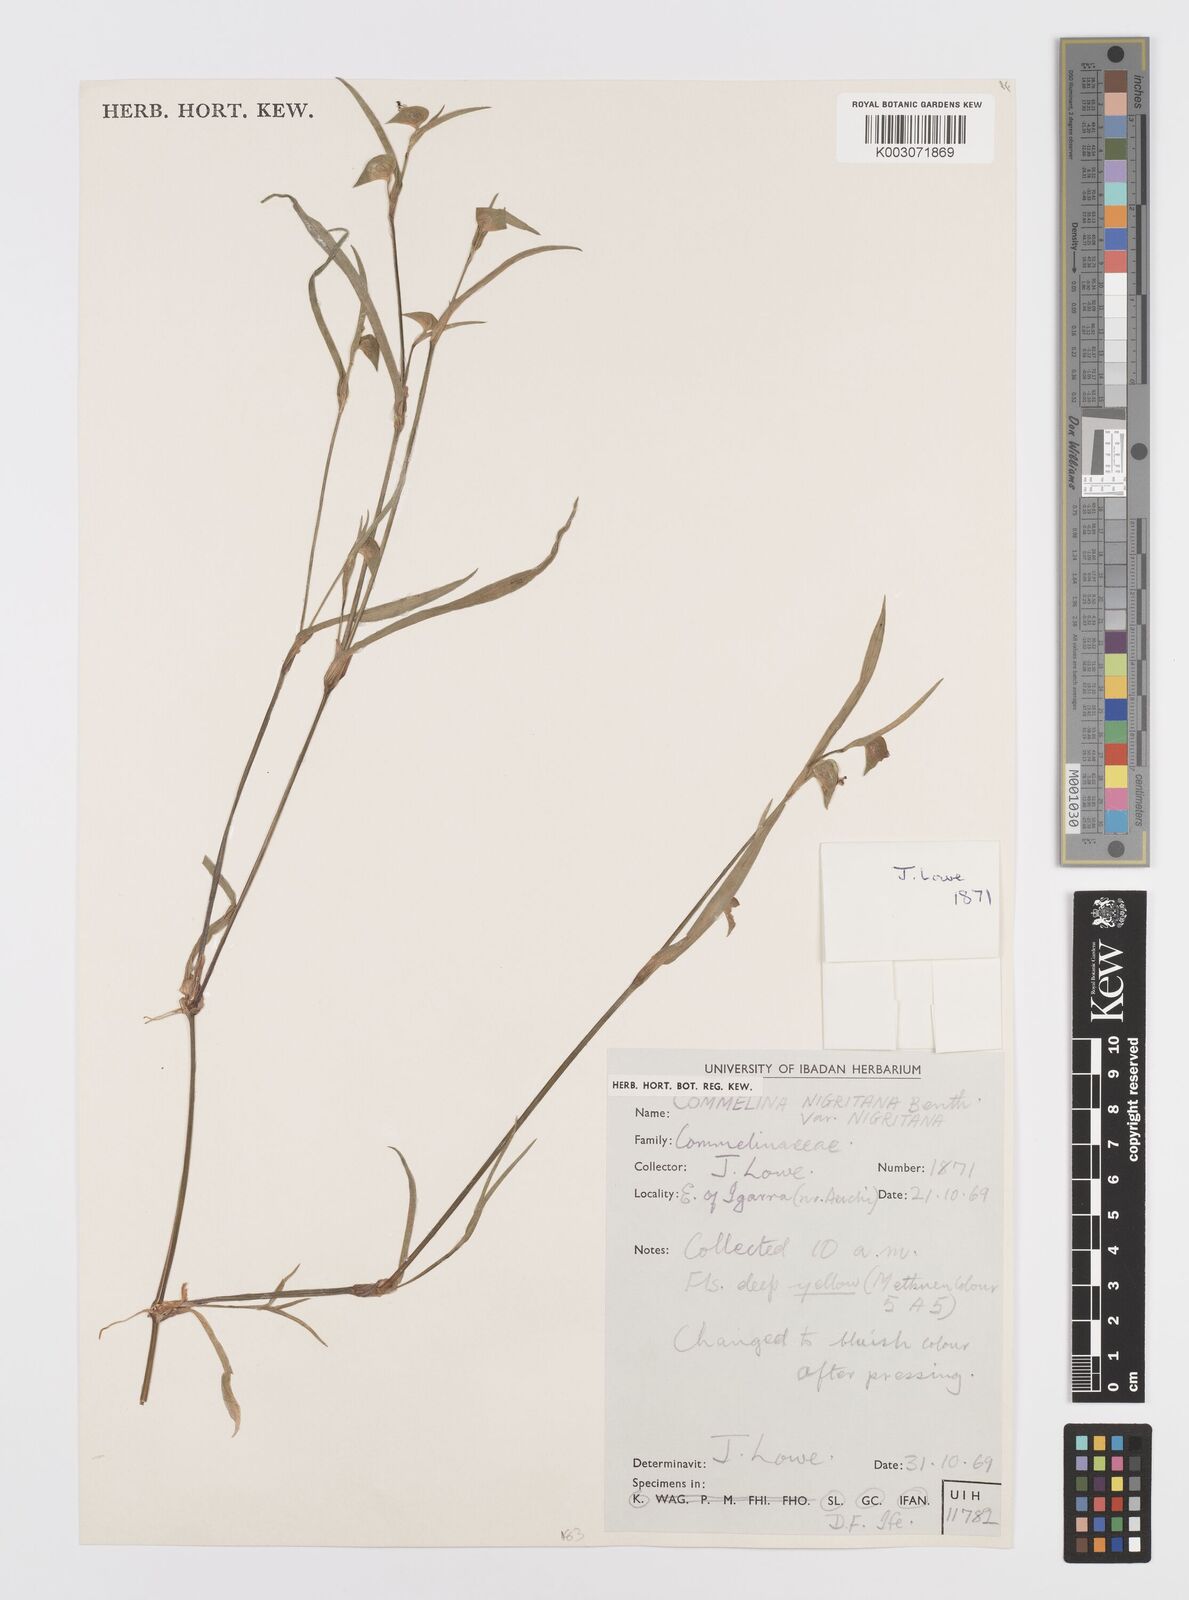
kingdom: Plantae
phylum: Tracheophyta
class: Liliopsida
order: Commelinales
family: Commelinaceae
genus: Commelina
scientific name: Commelina
